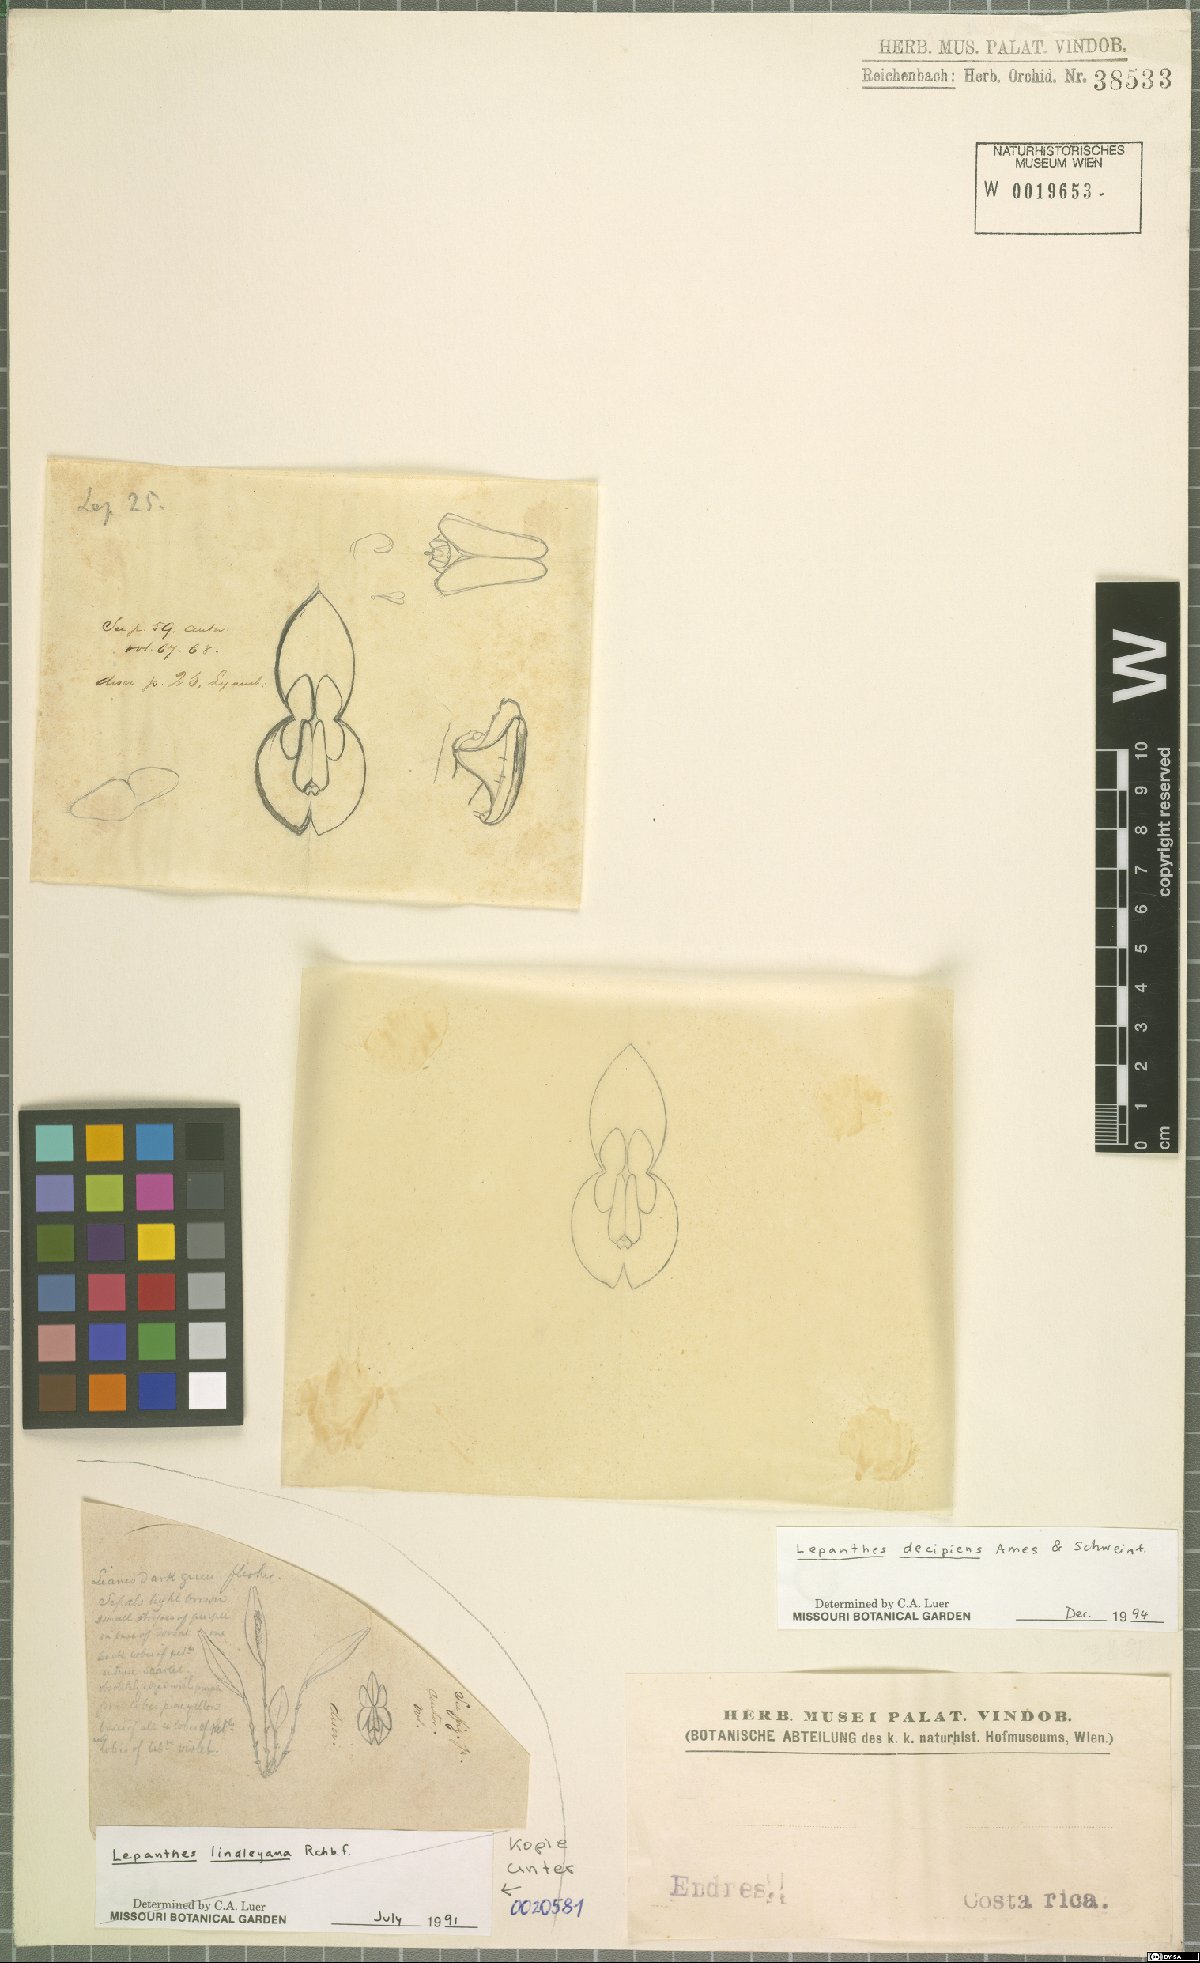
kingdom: Plantae
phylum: Tracheophyta
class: Liliopsida
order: Asparagales
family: Orchidaceae
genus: Lepanthes
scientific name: Lepanthes decipiens
